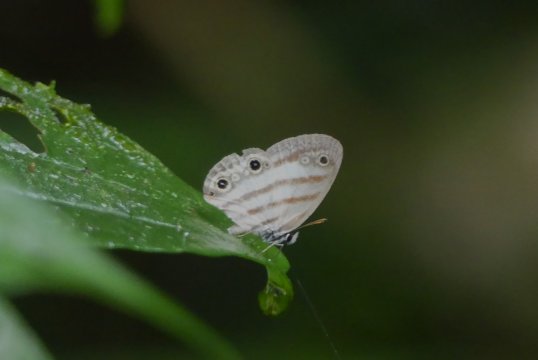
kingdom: Animalia
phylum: Arthropoda
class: Insecta
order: Lepidoptera
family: Nymphalidae
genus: Euptychia
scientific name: Euptychia mollina
